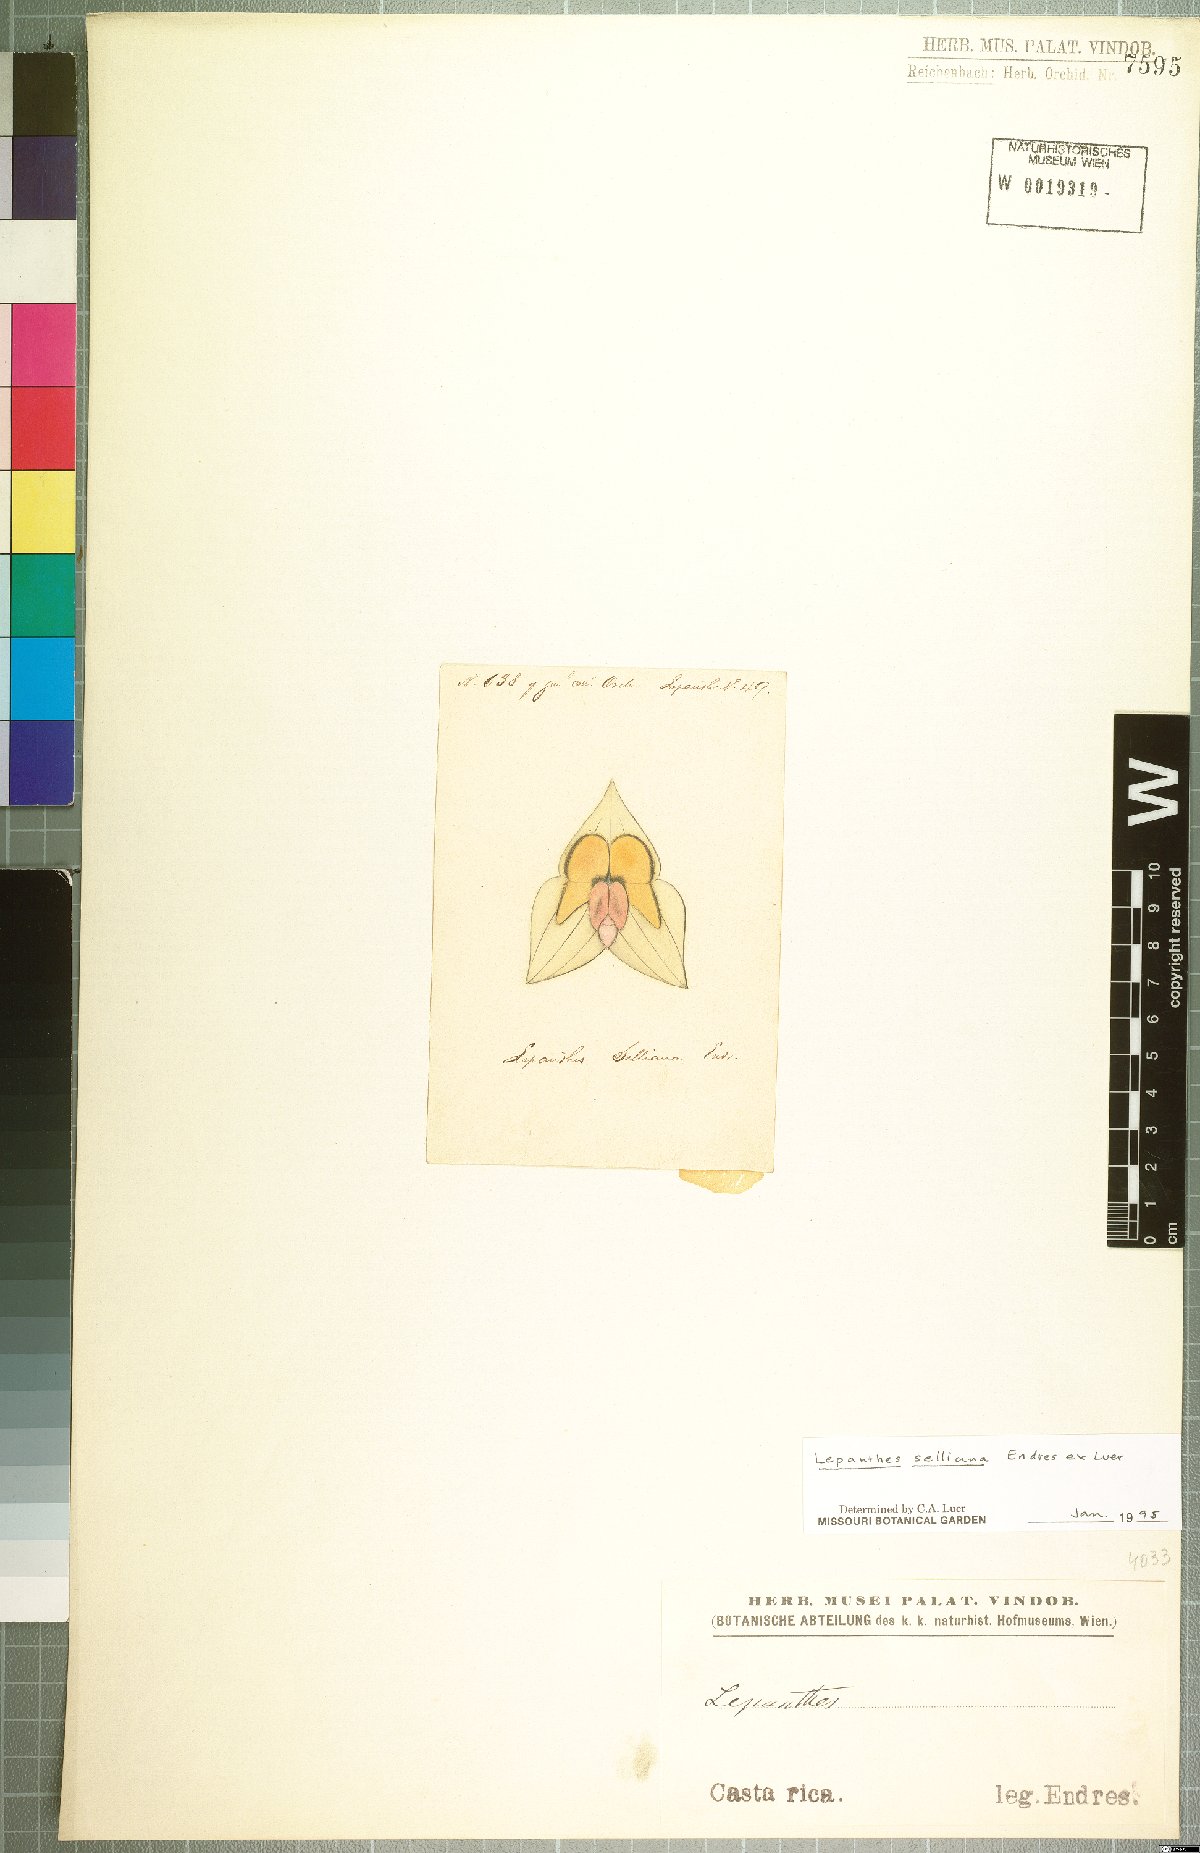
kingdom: Plantae
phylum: Tracheophyta
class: Liliopsida
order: Asparagales
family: Orchidaceae
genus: Lepanthes
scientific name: Lepanthes selliana
